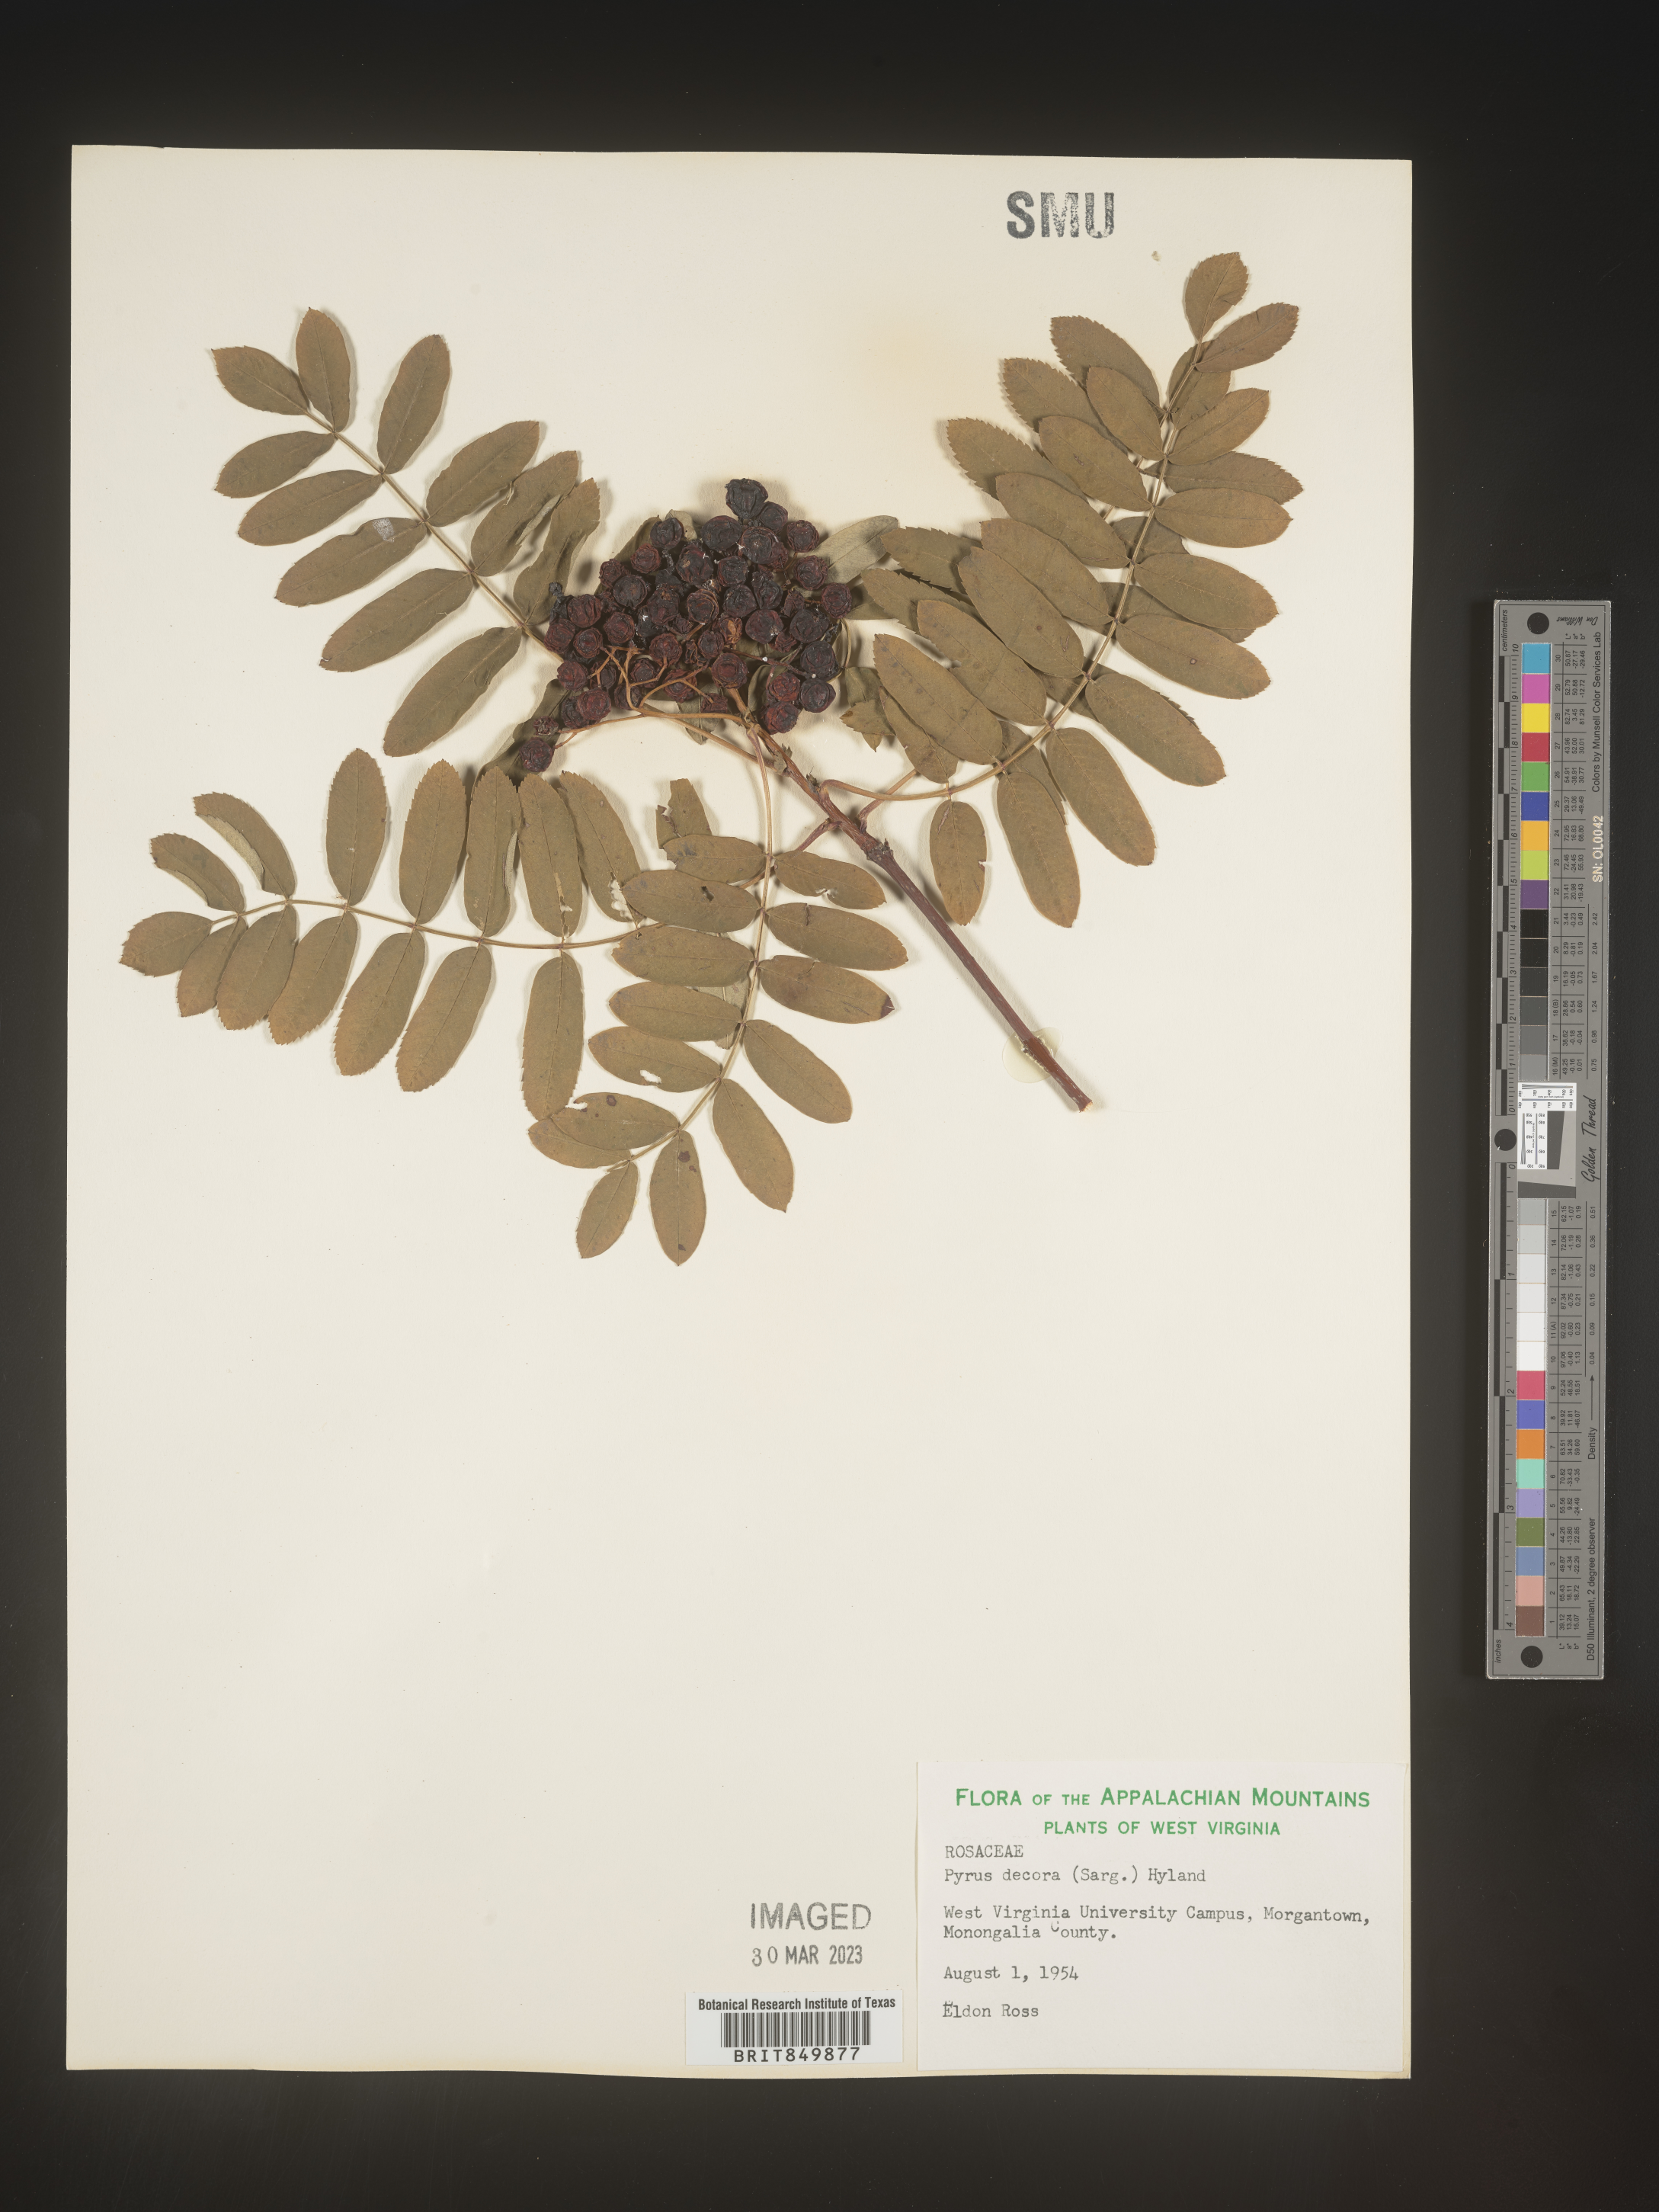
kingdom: Plantae
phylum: Tracheophyta
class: Magnoliopsida
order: Rosales
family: Rosaceae
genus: Sorbus
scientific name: Sorbus
